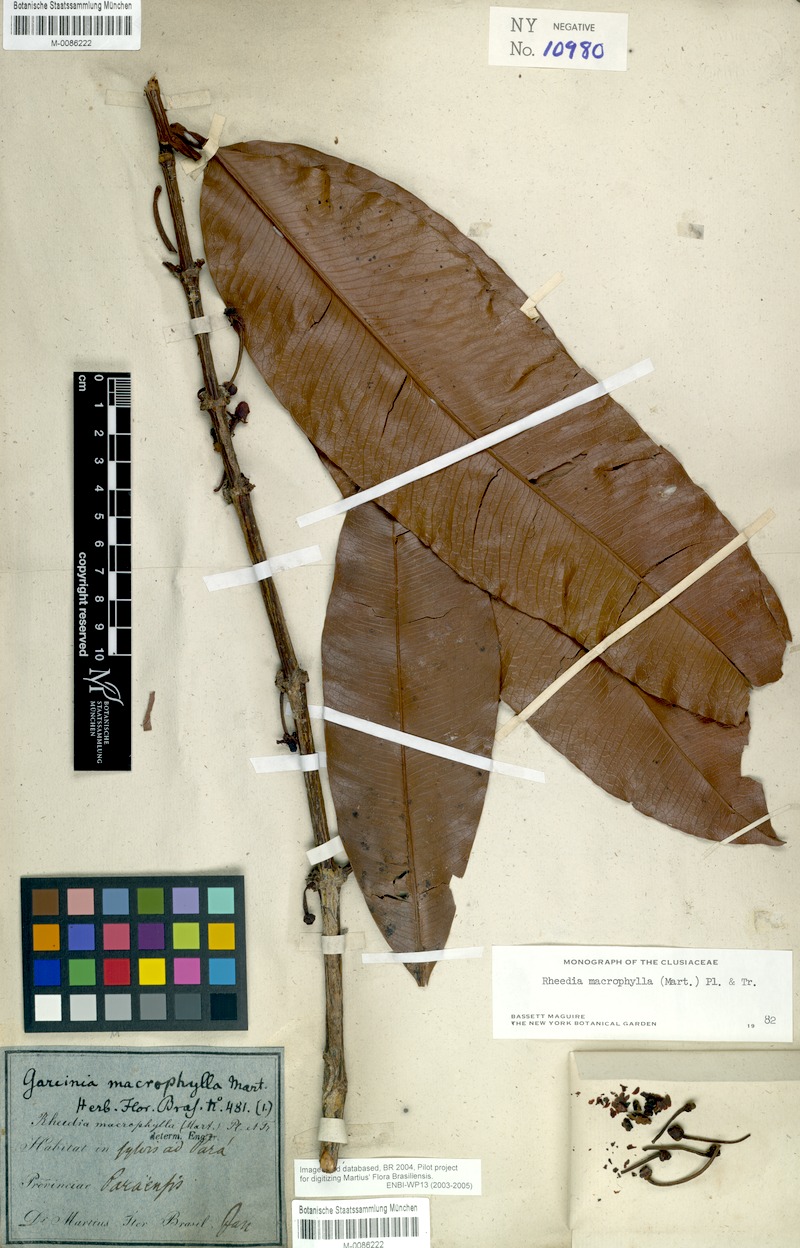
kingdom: Plantae
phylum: Tracheophyta
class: Magnoliopsida
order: Malpighiales
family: Clusiaceae
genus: Garcinia
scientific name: Garcinia macrophylla
